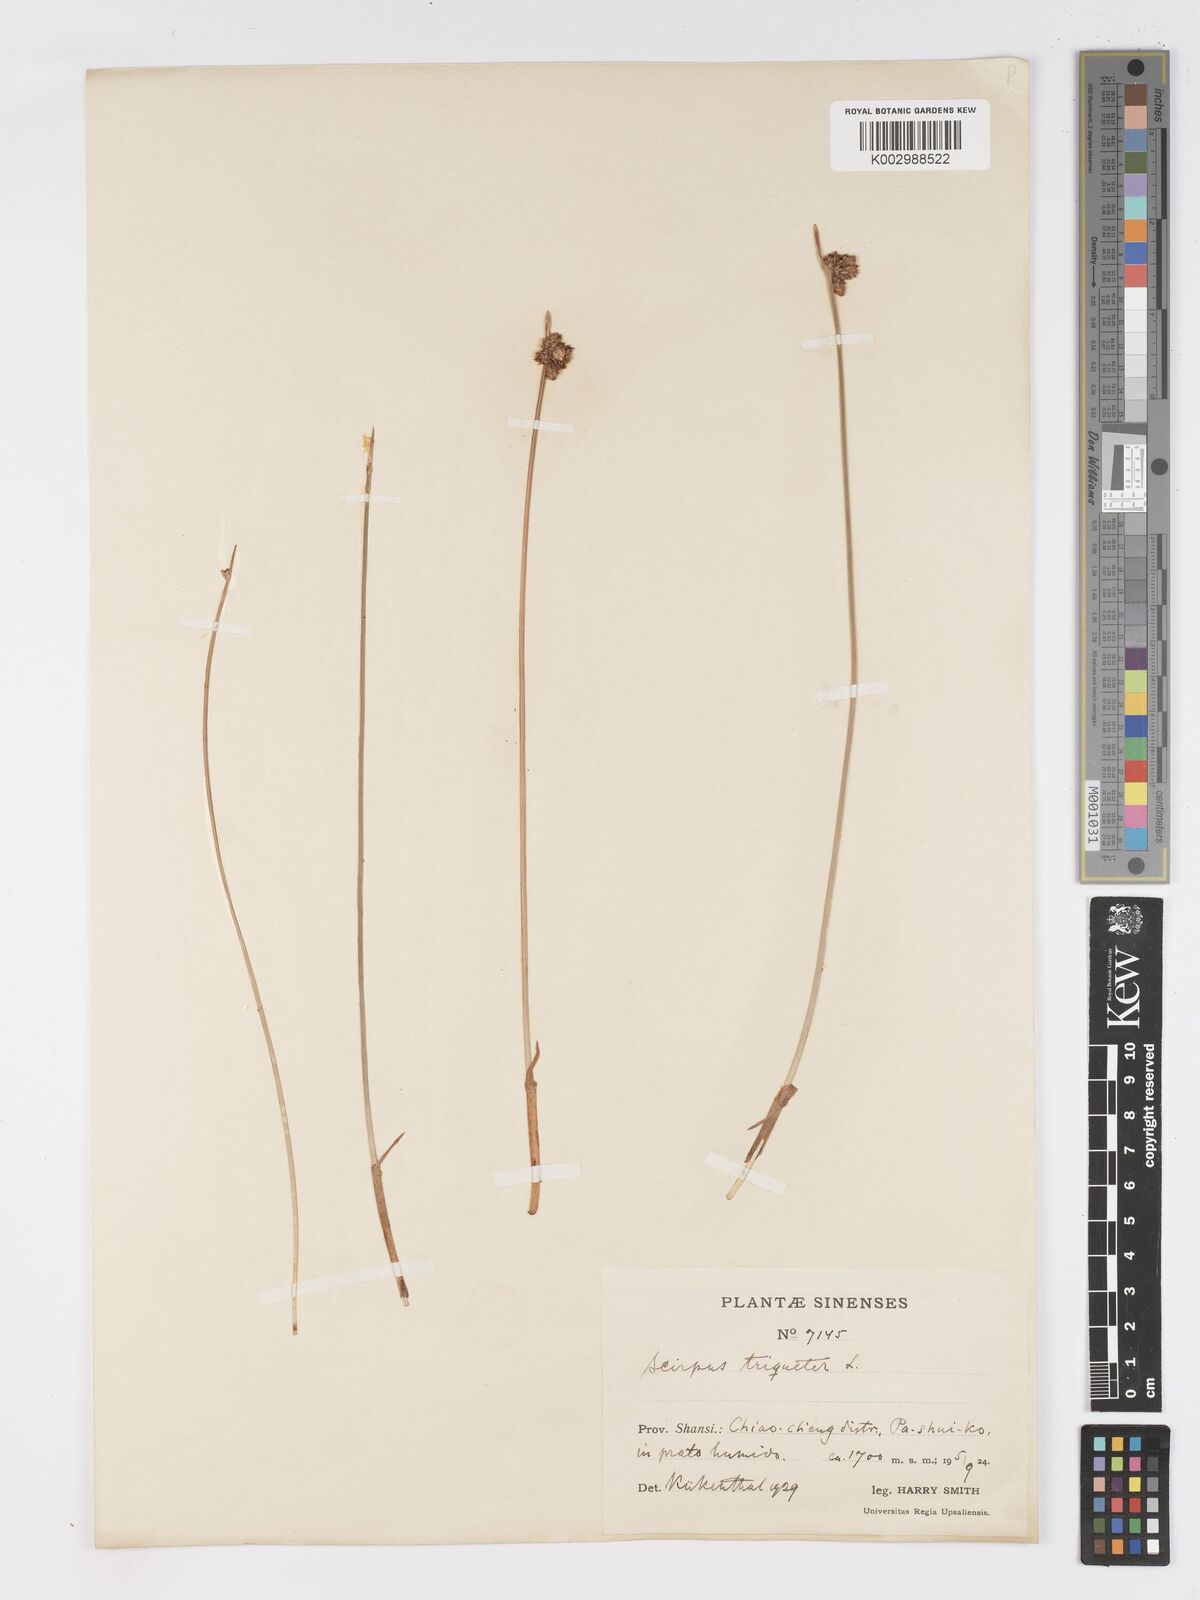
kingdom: Plantae
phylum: Tracheophyta
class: Liliopsida
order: Poales
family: Cyperaceae
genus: Schoenoplectus
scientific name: Schoenoplectus triqueter
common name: Triangular club-rush
